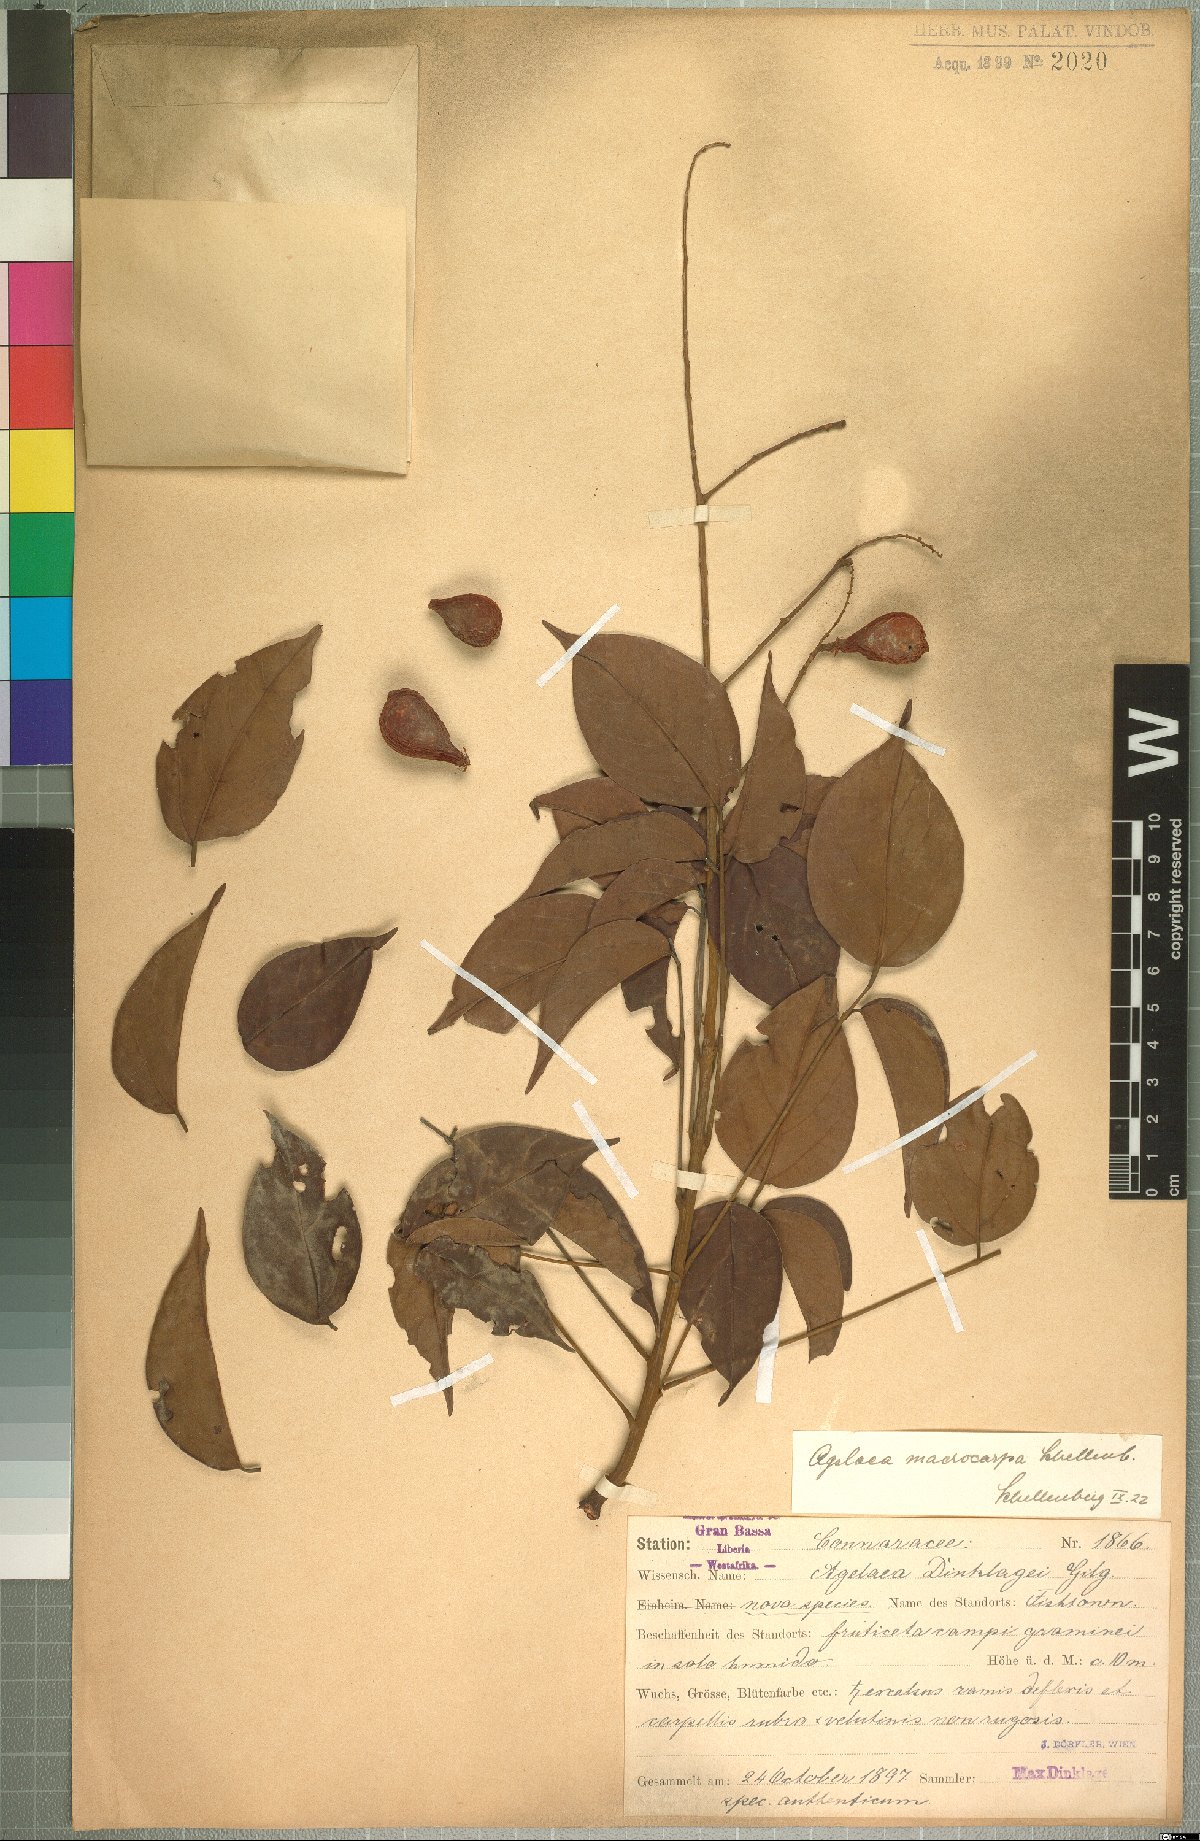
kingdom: Plantae
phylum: Tracheophyta
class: Magnoliopsida
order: Oxalidales
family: Connaraceae
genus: Agelaea
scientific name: Agelaea pentagyna
